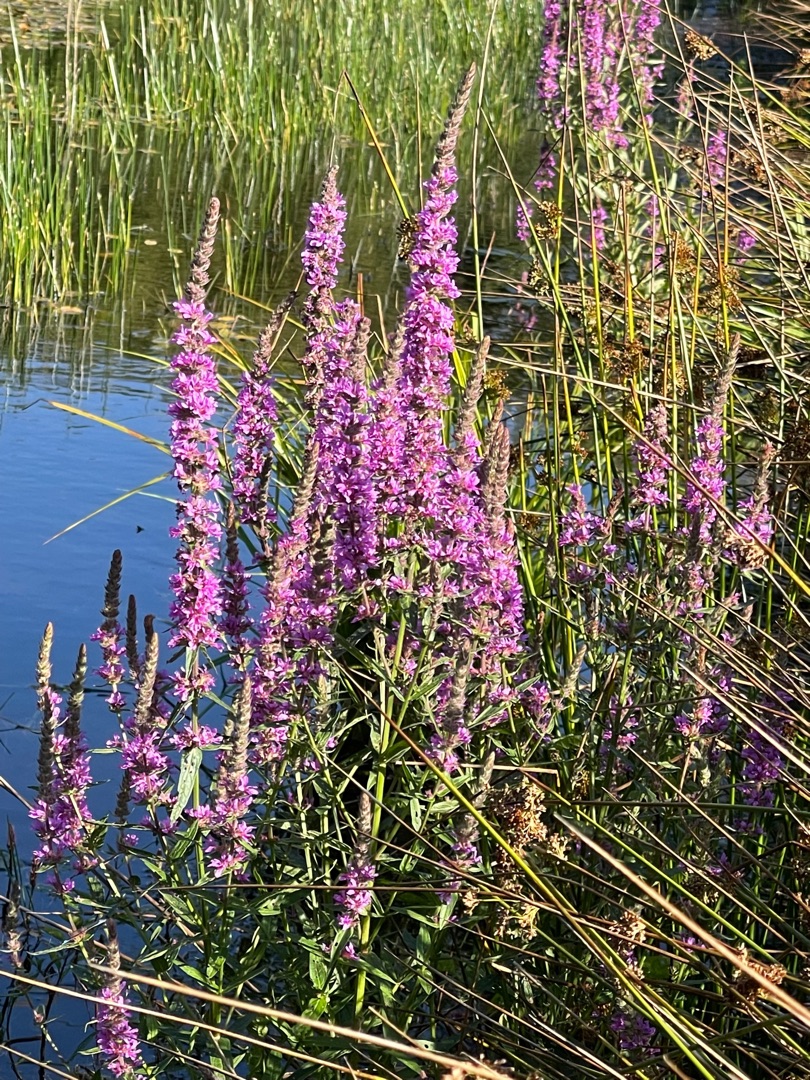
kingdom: Plantae
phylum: Tracheophyta
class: Magnoliopsida
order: Myrtales
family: Lythraceae
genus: Lythrum
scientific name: Lythrum salicaria
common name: Kattehale
